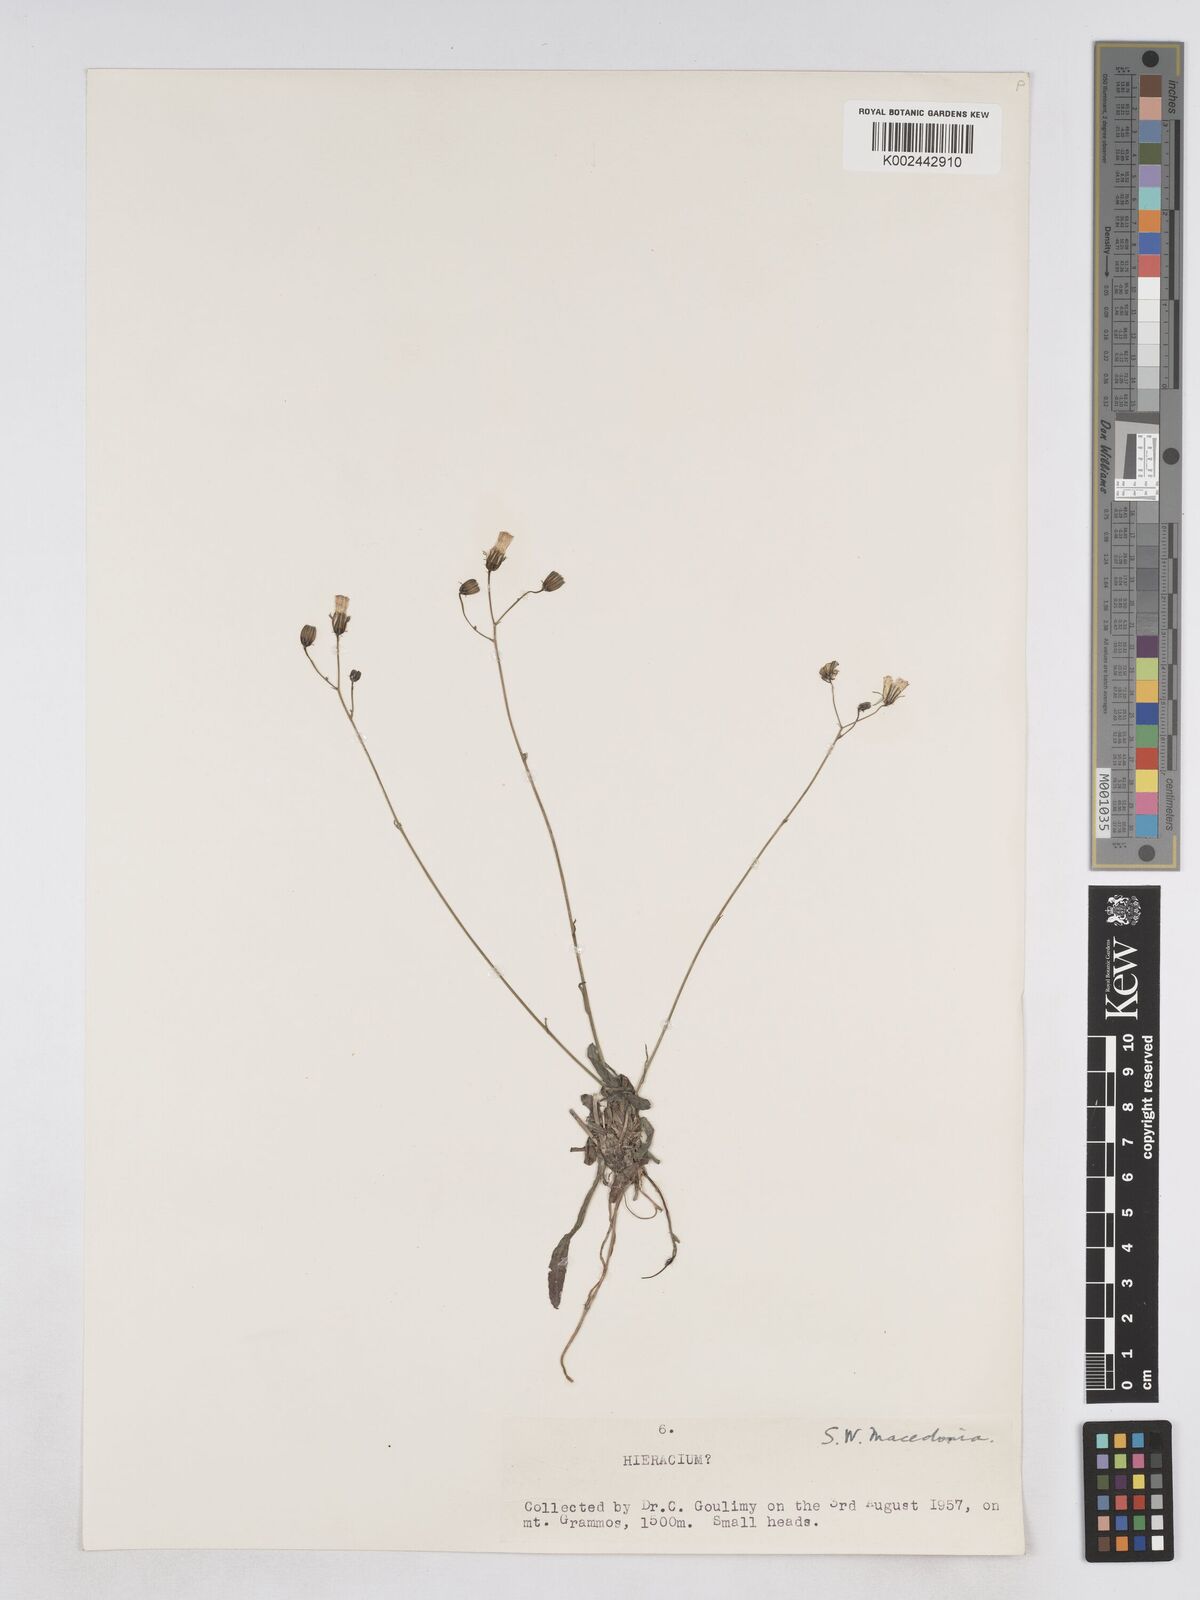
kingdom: Plantae
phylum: Tracheophyta
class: Magnoliopsida
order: Asterales
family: Asteraceae
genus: Pilosella
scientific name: Pilosella pavichii
